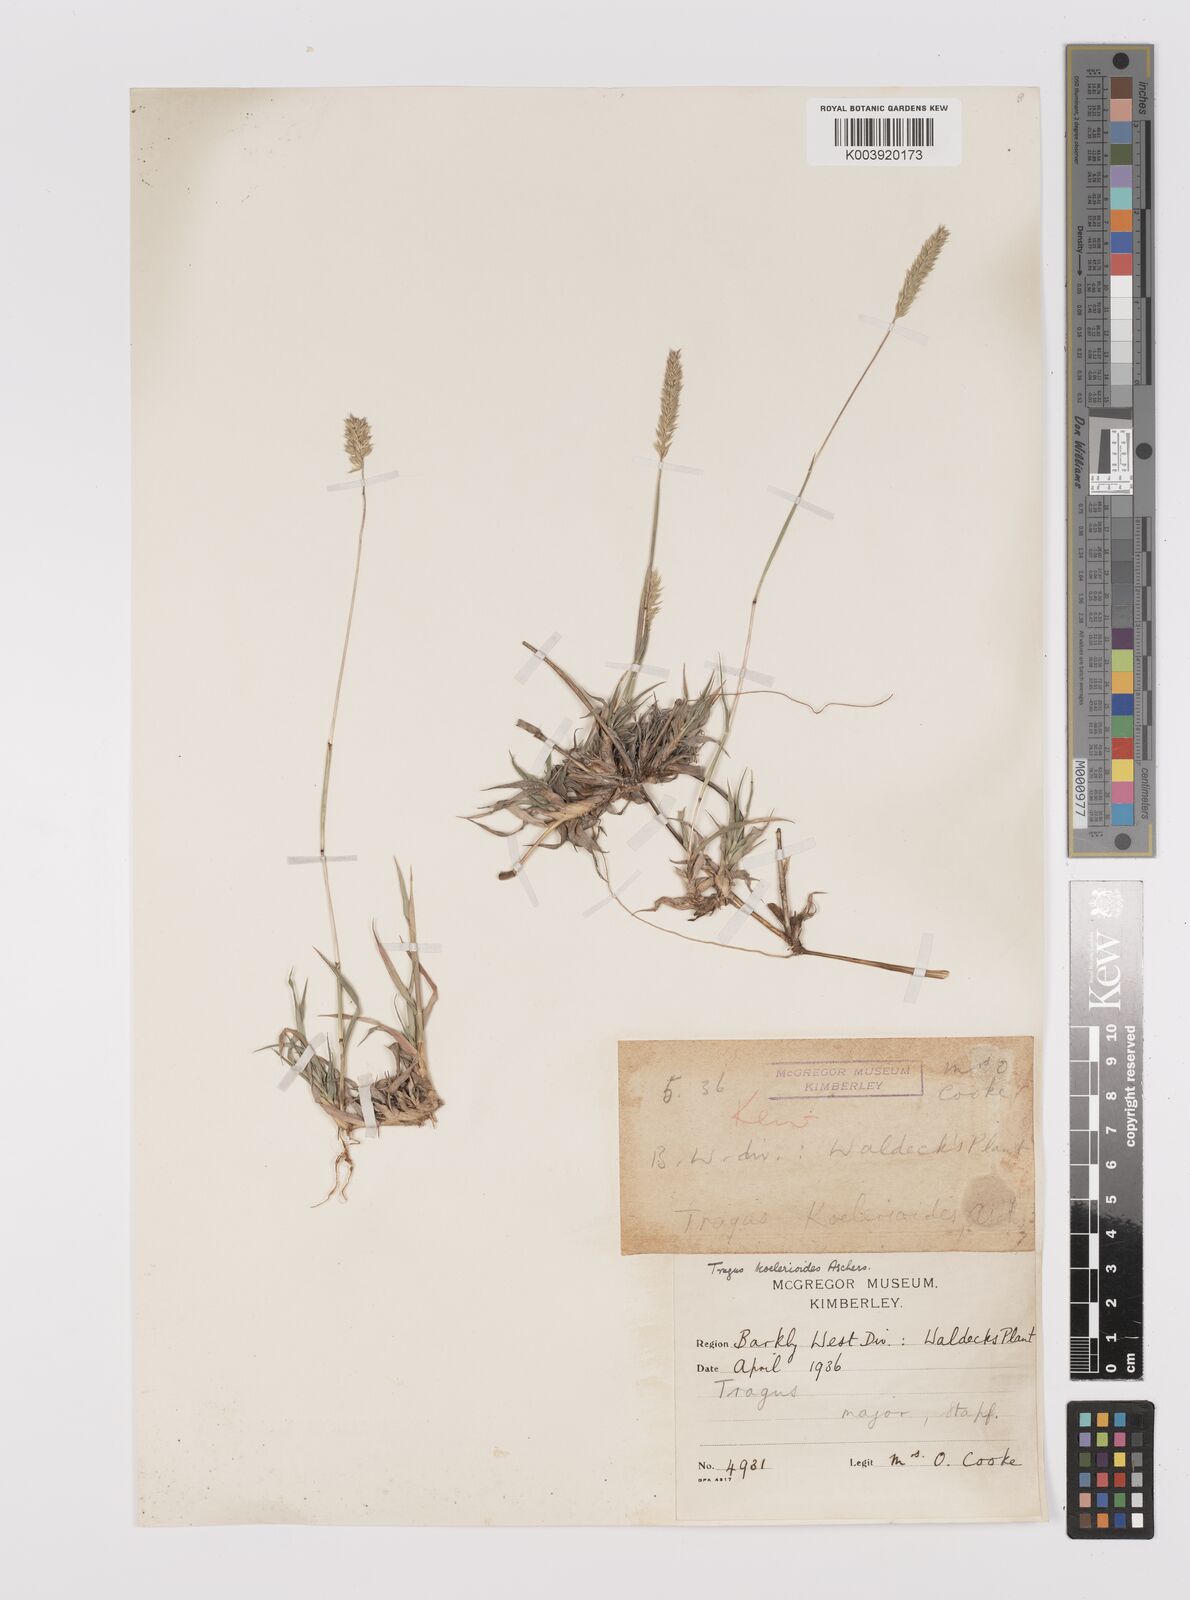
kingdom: Plantae
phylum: Tracheophyta
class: Liliopsida
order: Poales
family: Poaceae
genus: Tragus
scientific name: Tragus koelerioides
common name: Creeping carrot-seed grass
